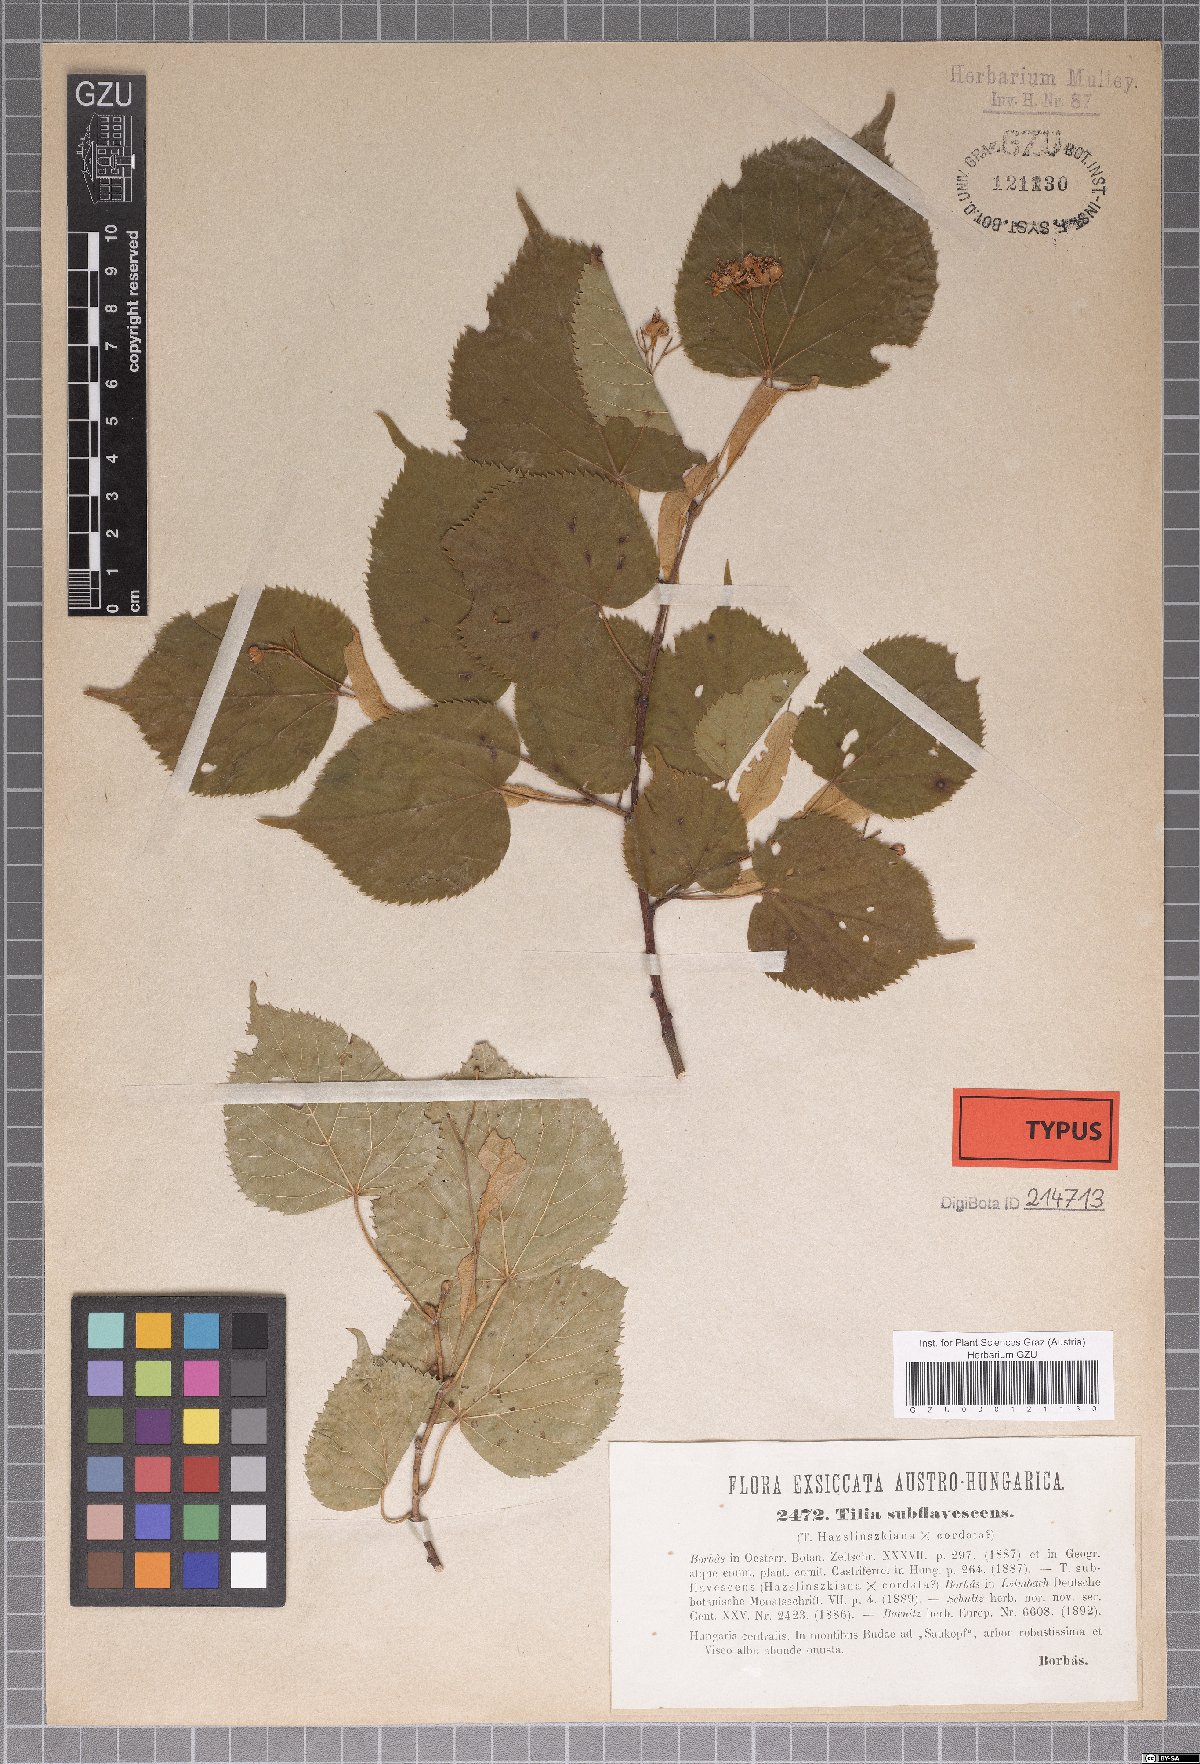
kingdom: Plantae
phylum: Tracheophyta
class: Magnoliopsida
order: Malvales
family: Malvaceae
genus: Tilia
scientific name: Tilia platyphyllos
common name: Large-leaved lime
